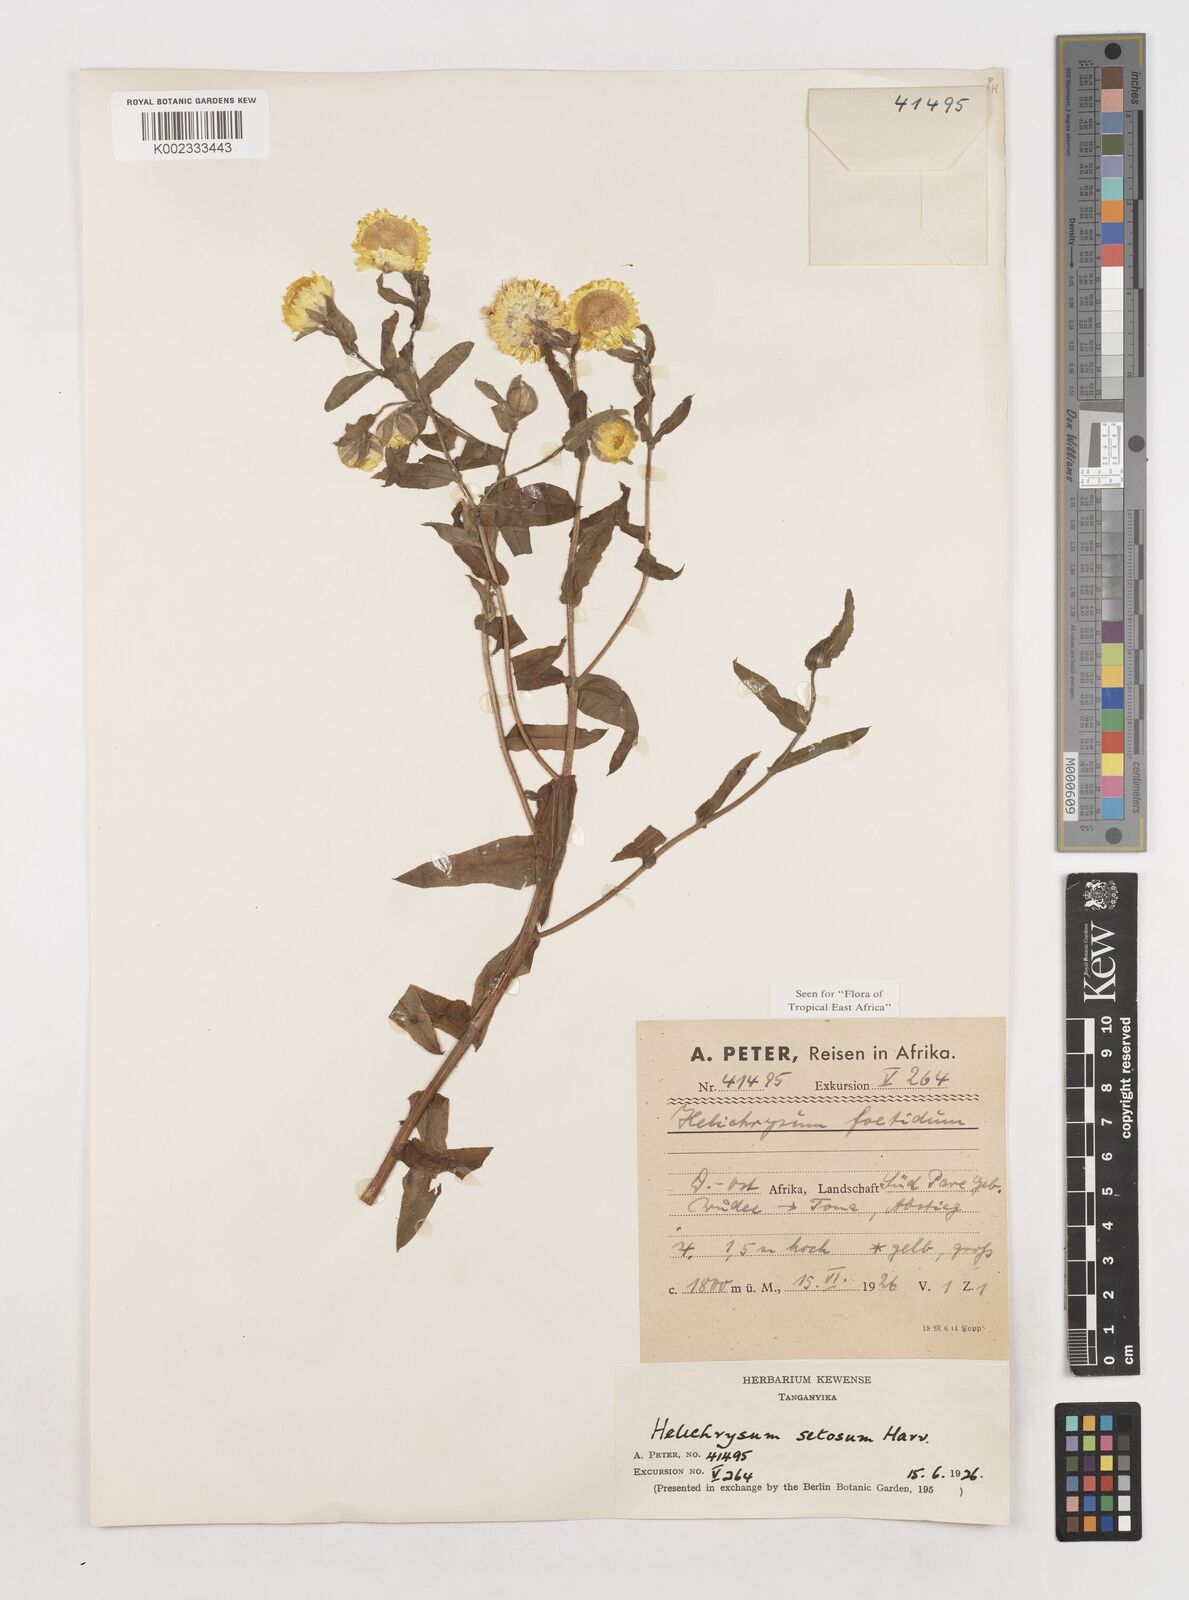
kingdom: Plantae
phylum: Tracheophyta
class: Magnoliopsida
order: Asterales
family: Asteraceae
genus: Helichrysum
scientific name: Helichrysum setosum
